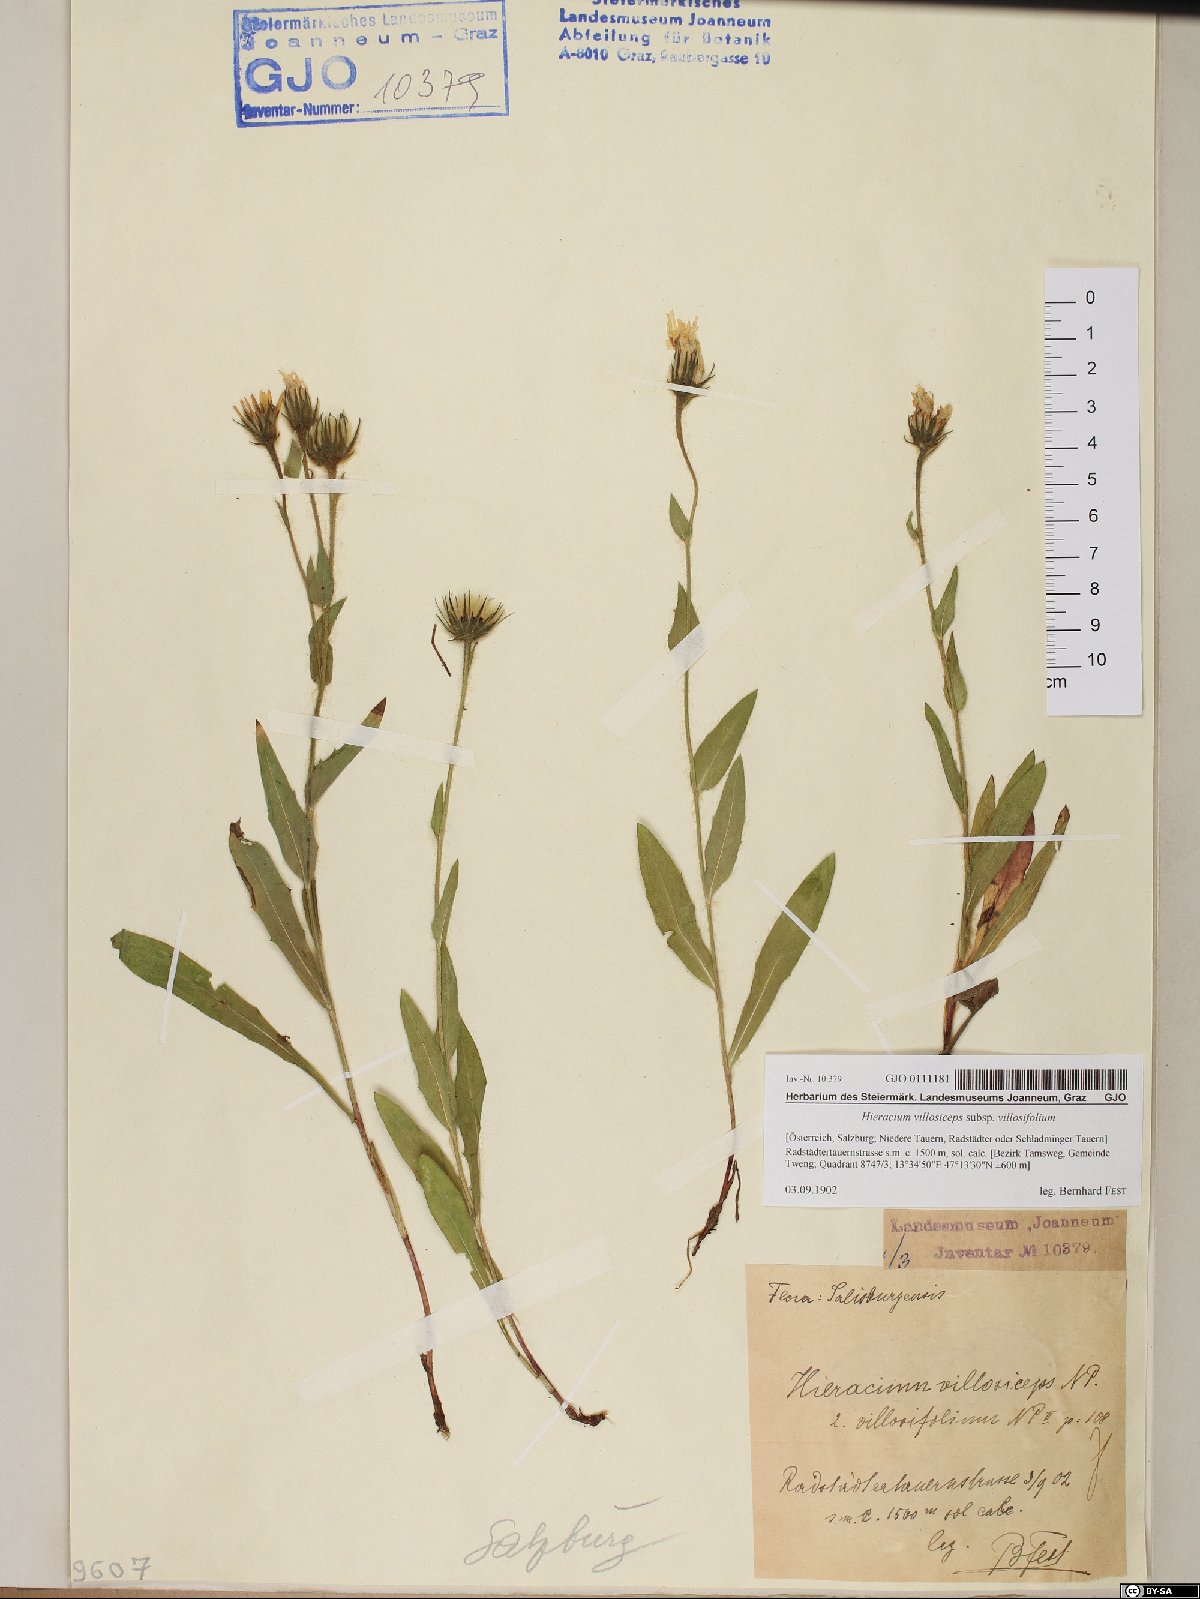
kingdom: Plantae
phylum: Tracheophyta
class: Magnoliopsida
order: Asterales
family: Asteraceae
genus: Hieracium
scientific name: Hieracium pilosum
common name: Fimbriate-pitted hawkweed
